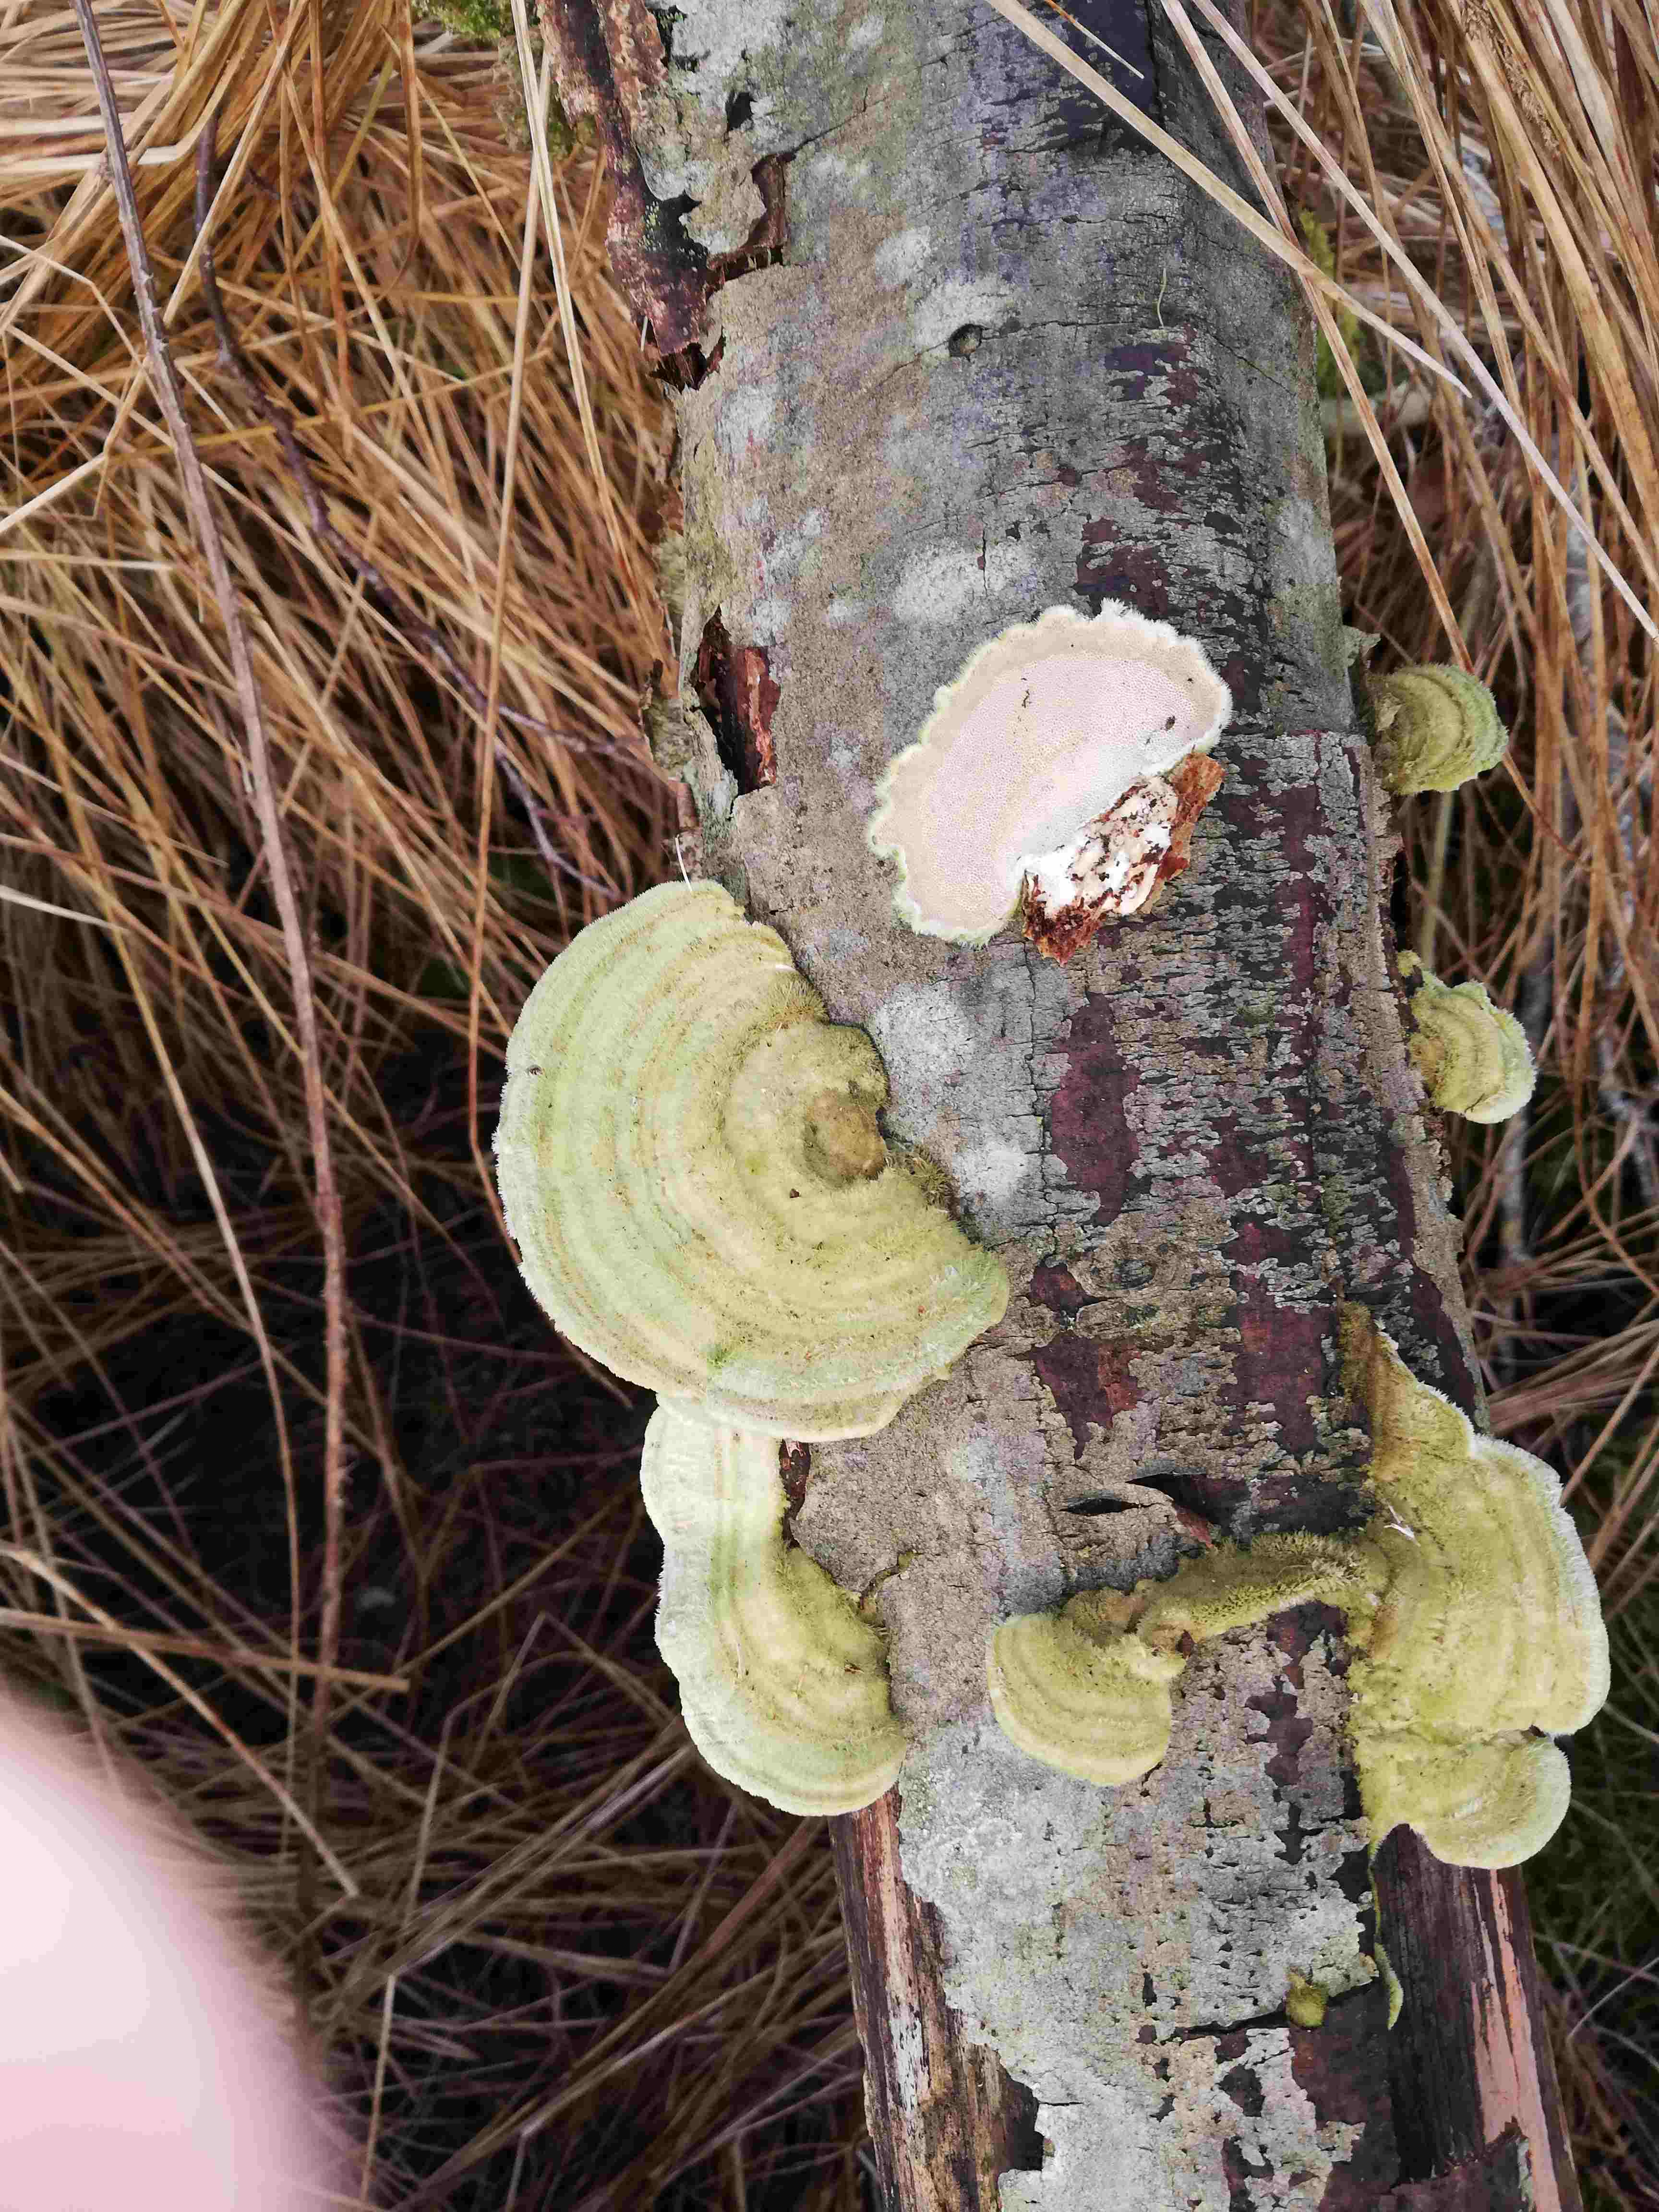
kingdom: Fungi
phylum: Basidiomycota
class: Agaricomycetes
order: Polyporales
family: Polyporaceae
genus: Trametes
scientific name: Trametes hirsuta
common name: håret læderporesvamp
